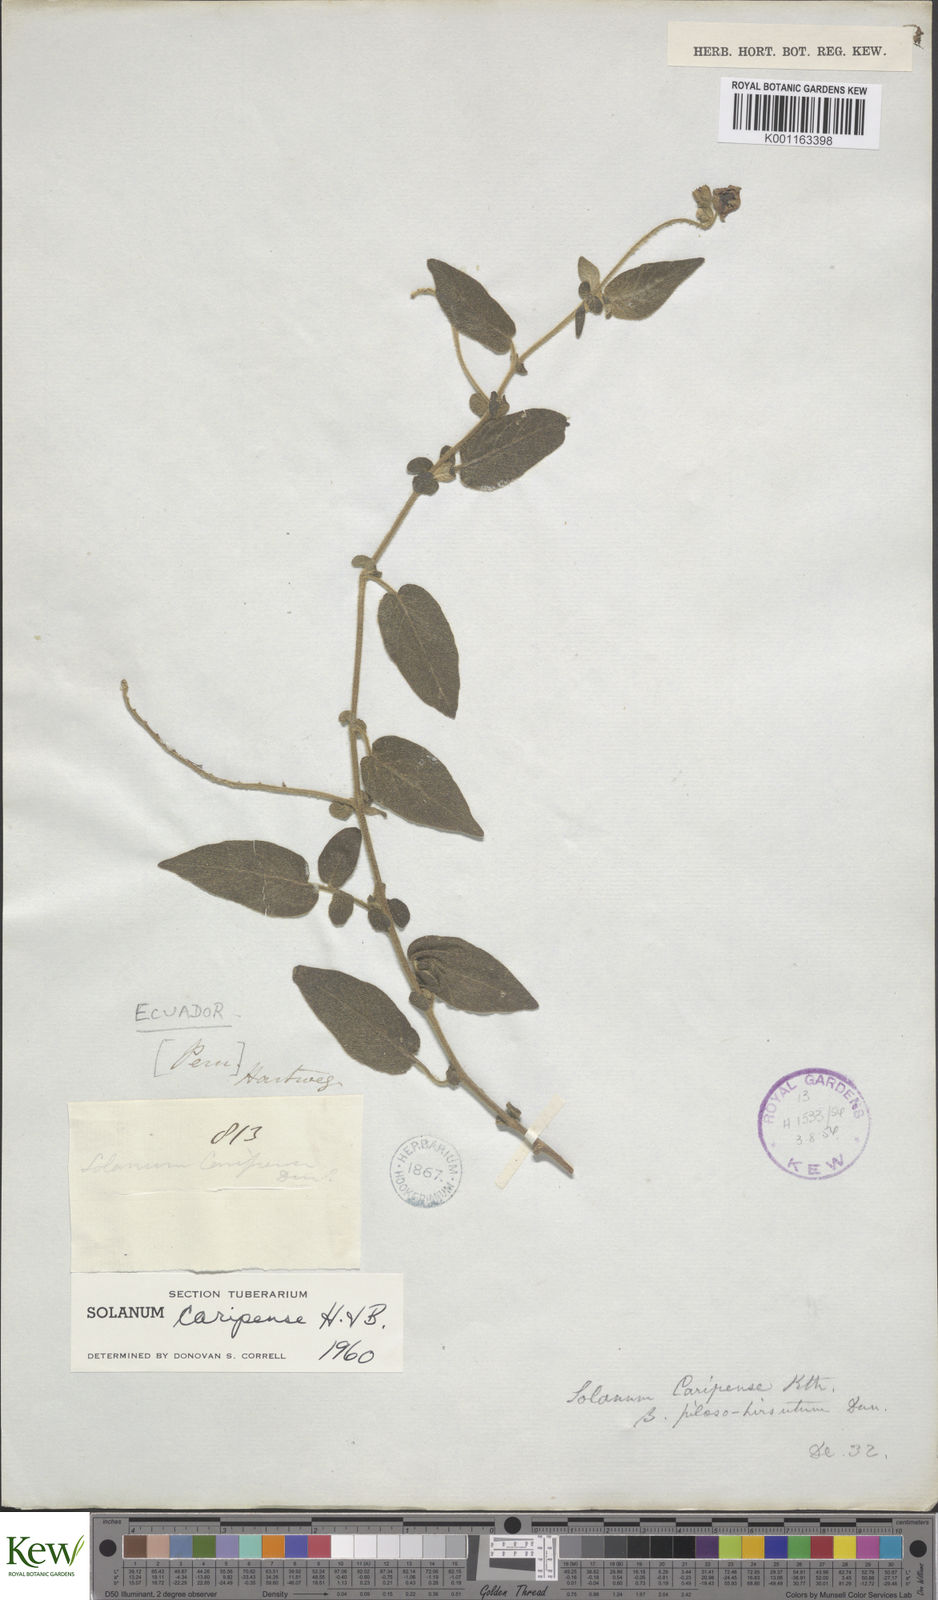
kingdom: Plantae
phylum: Tracheophyta
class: Magnoliopsida
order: Solanales
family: Solanaceae
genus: Solanum
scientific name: Solanum caripense
